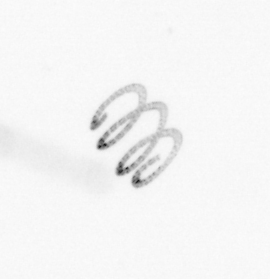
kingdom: Chromista
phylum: Ochrophyta
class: Bacillariophyceae
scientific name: Bacillariophyceae
